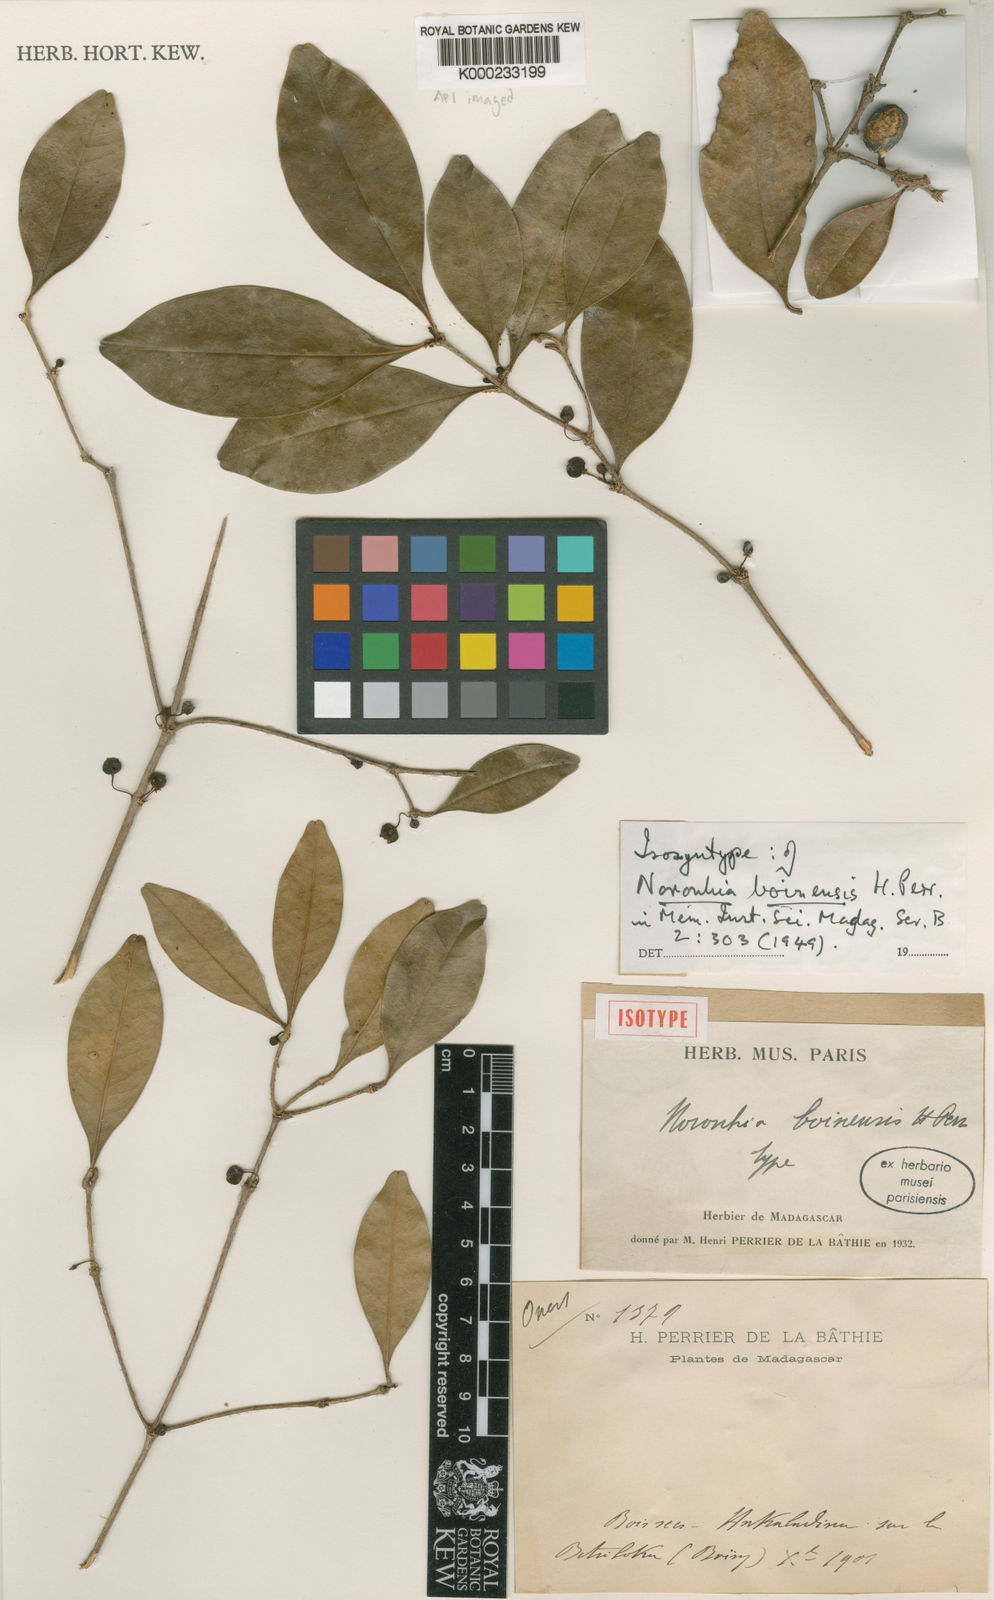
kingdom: Plantae
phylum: Tracheophyta
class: Magnoliopsida
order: Lamiales
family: Oleaceae
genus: Noronhia
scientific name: Noronhia boinensis
